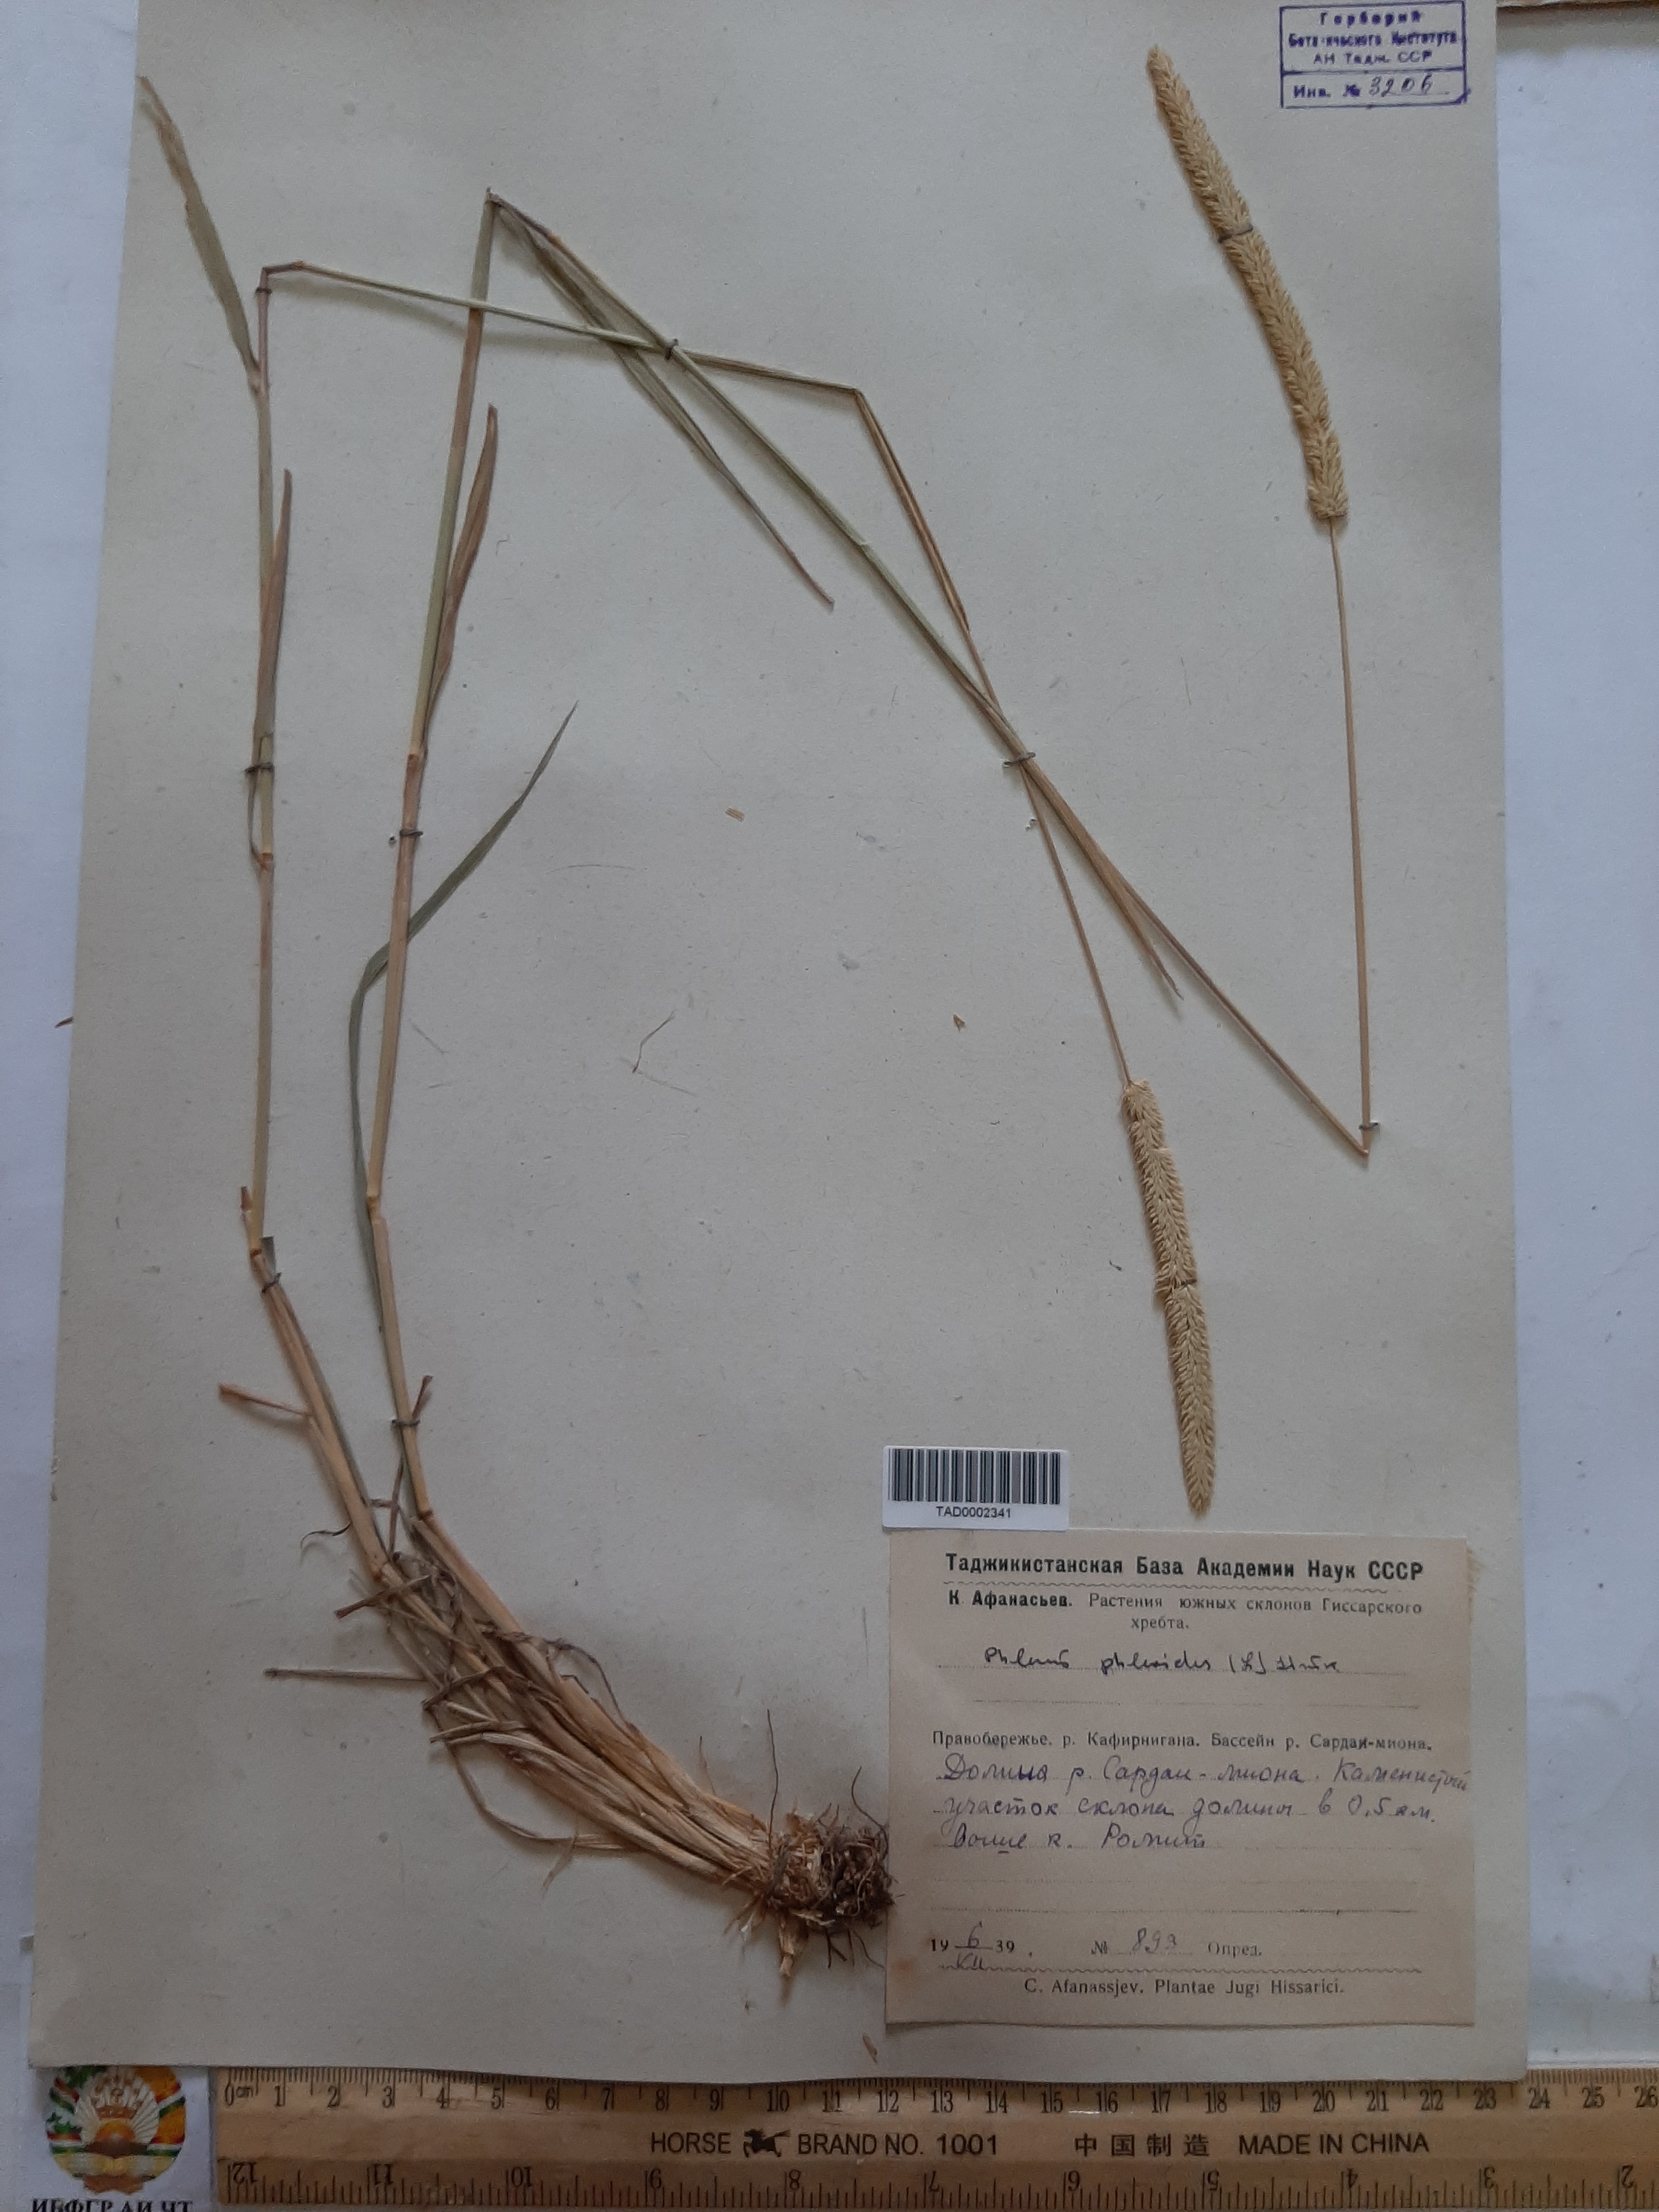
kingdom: Plantae
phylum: Tracheophyta
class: Liliopsida
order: Poales
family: Poaceae
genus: Phleum
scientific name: Phleum phleoides
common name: Purple-stem cat's-tail
